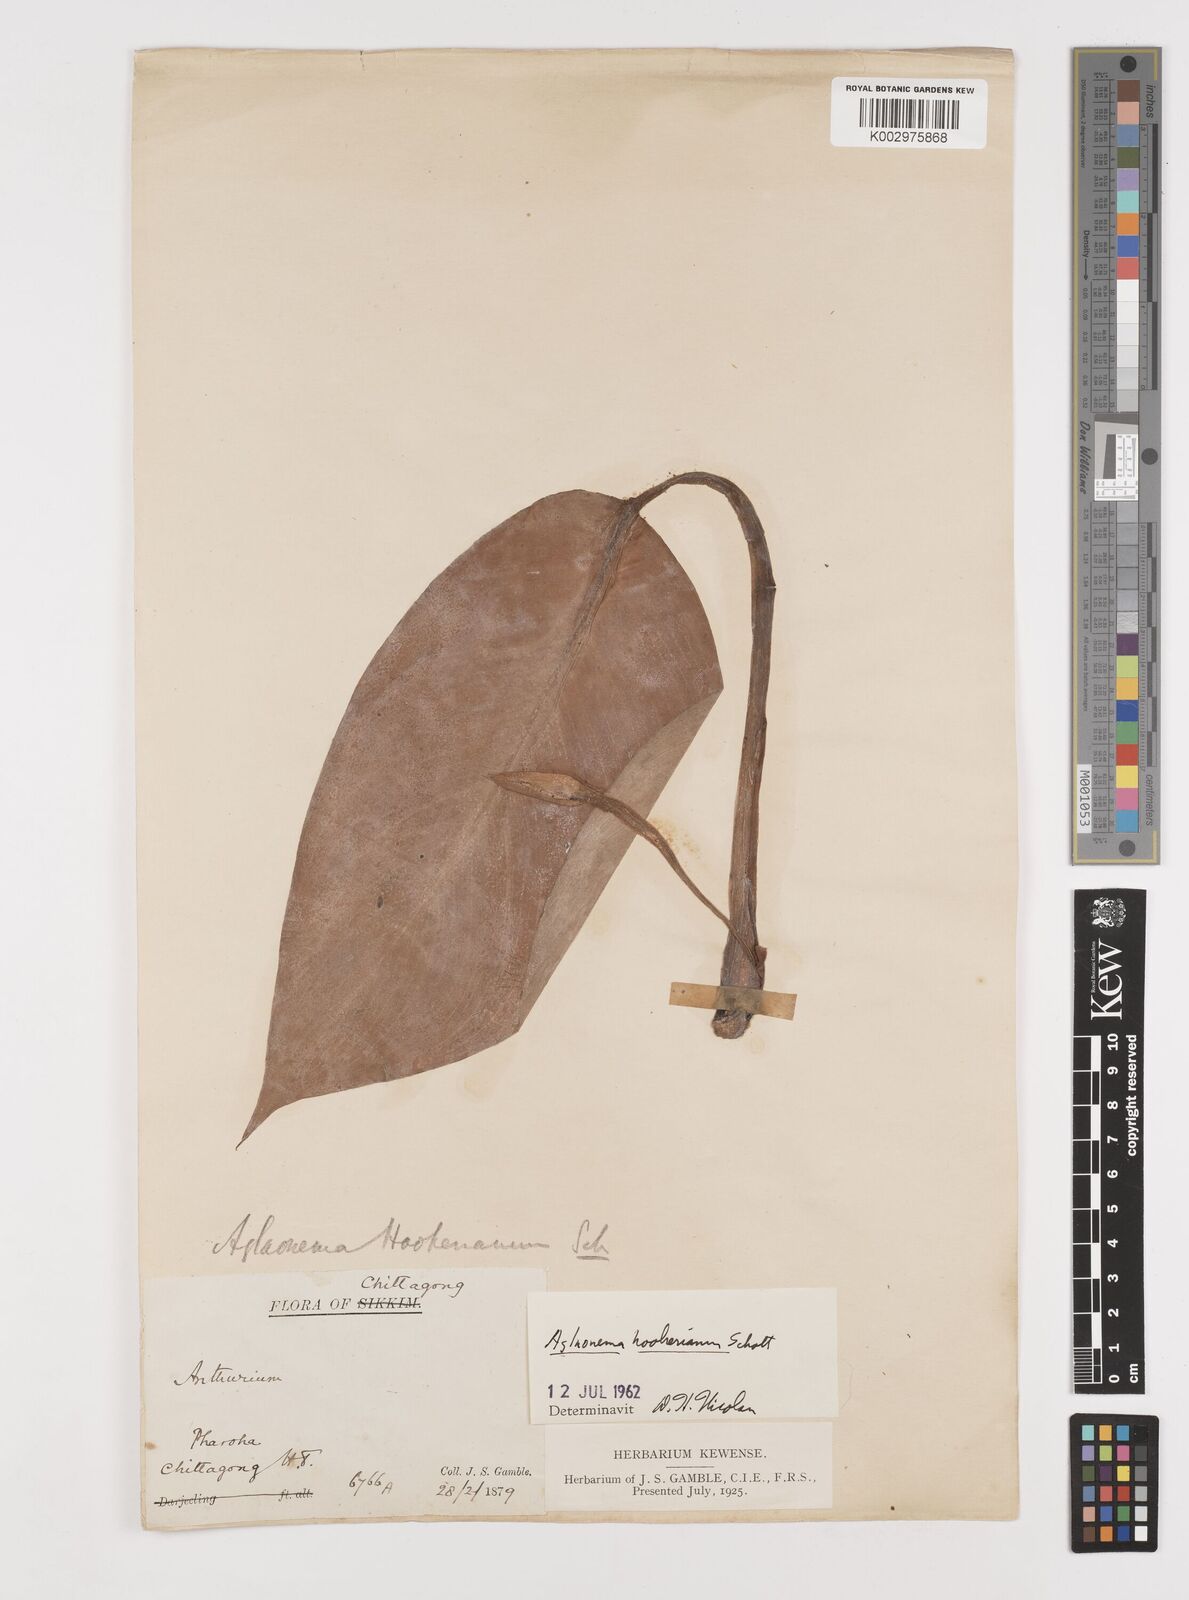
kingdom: Plantae
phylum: Tracheophyta
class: Liliopsida
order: Alismatales
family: Araceae
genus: Aglaonema
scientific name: Aglaonema hookerianum
